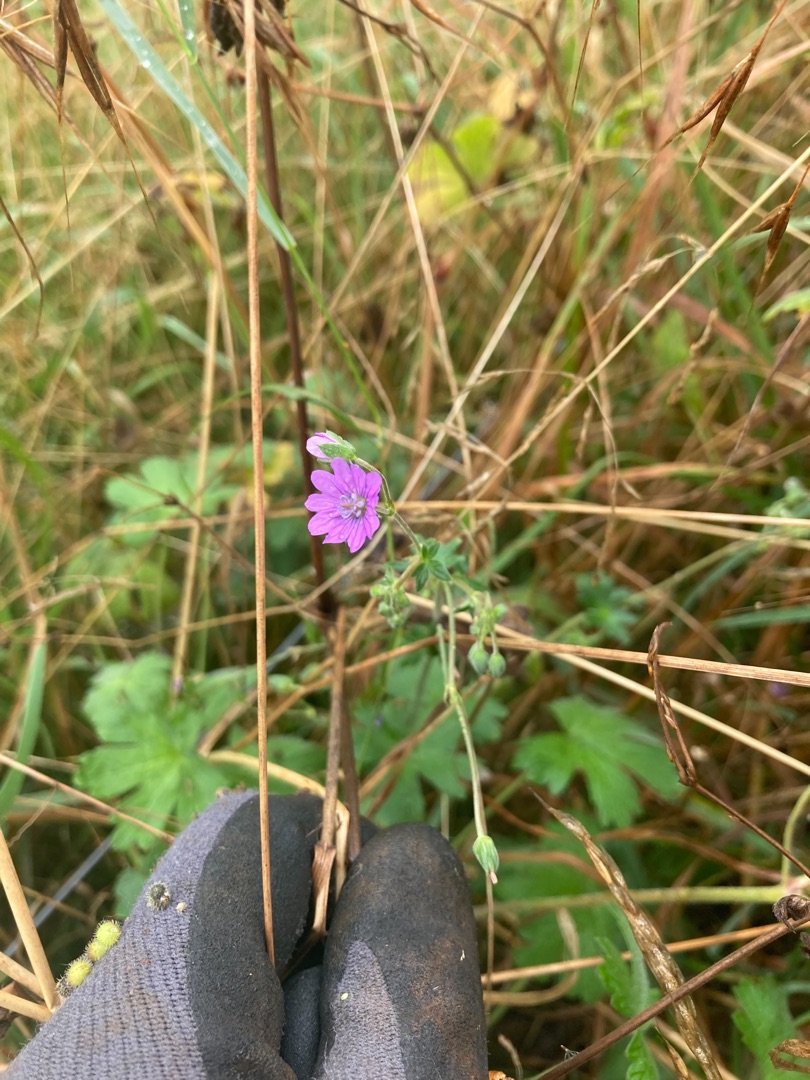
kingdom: Plantae
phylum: Tracheophyta
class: Magnoliopsida
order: Geraniales
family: Geraniaceae
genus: Geranium
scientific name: Geranium pyrenaicum
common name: Pyrenæisk storkenæb
